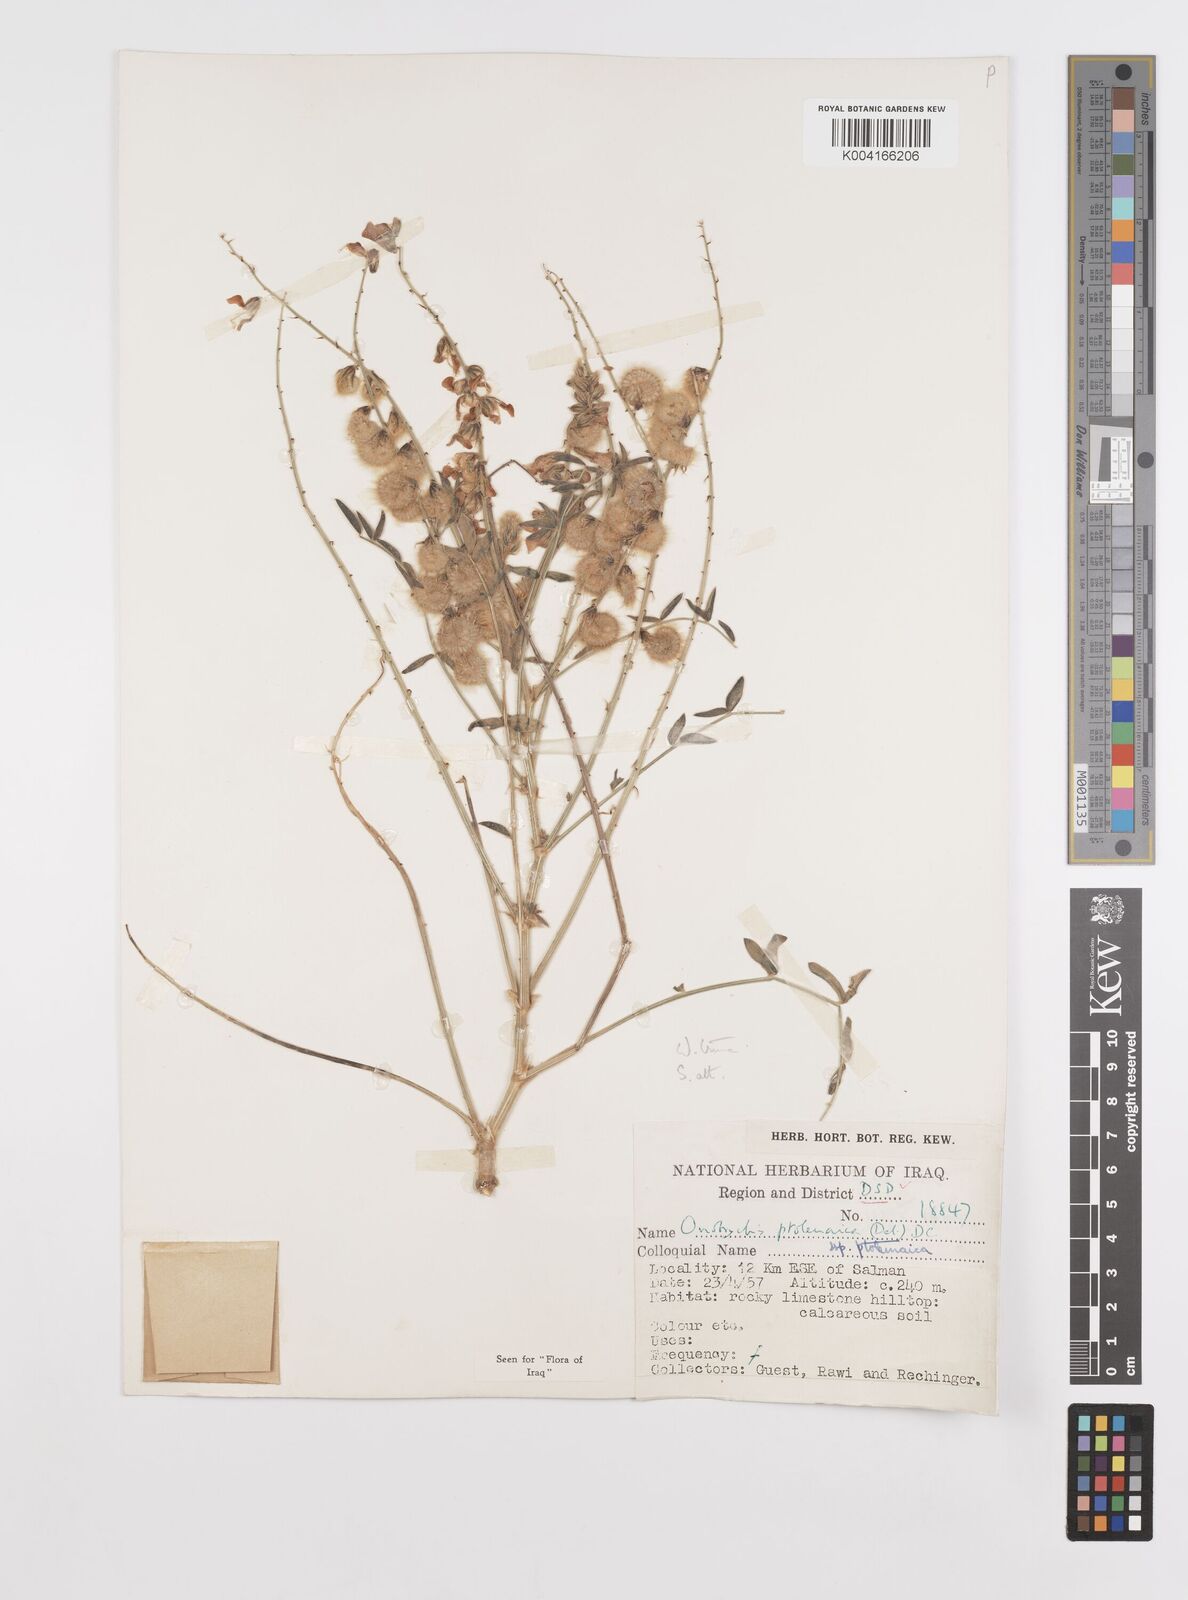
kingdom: Plantae
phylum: Tracheophyta
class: Magnoliopsida
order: Fabales
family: Fabaceae
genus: Onobrychis
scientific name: Onobrychis ptolemaica
